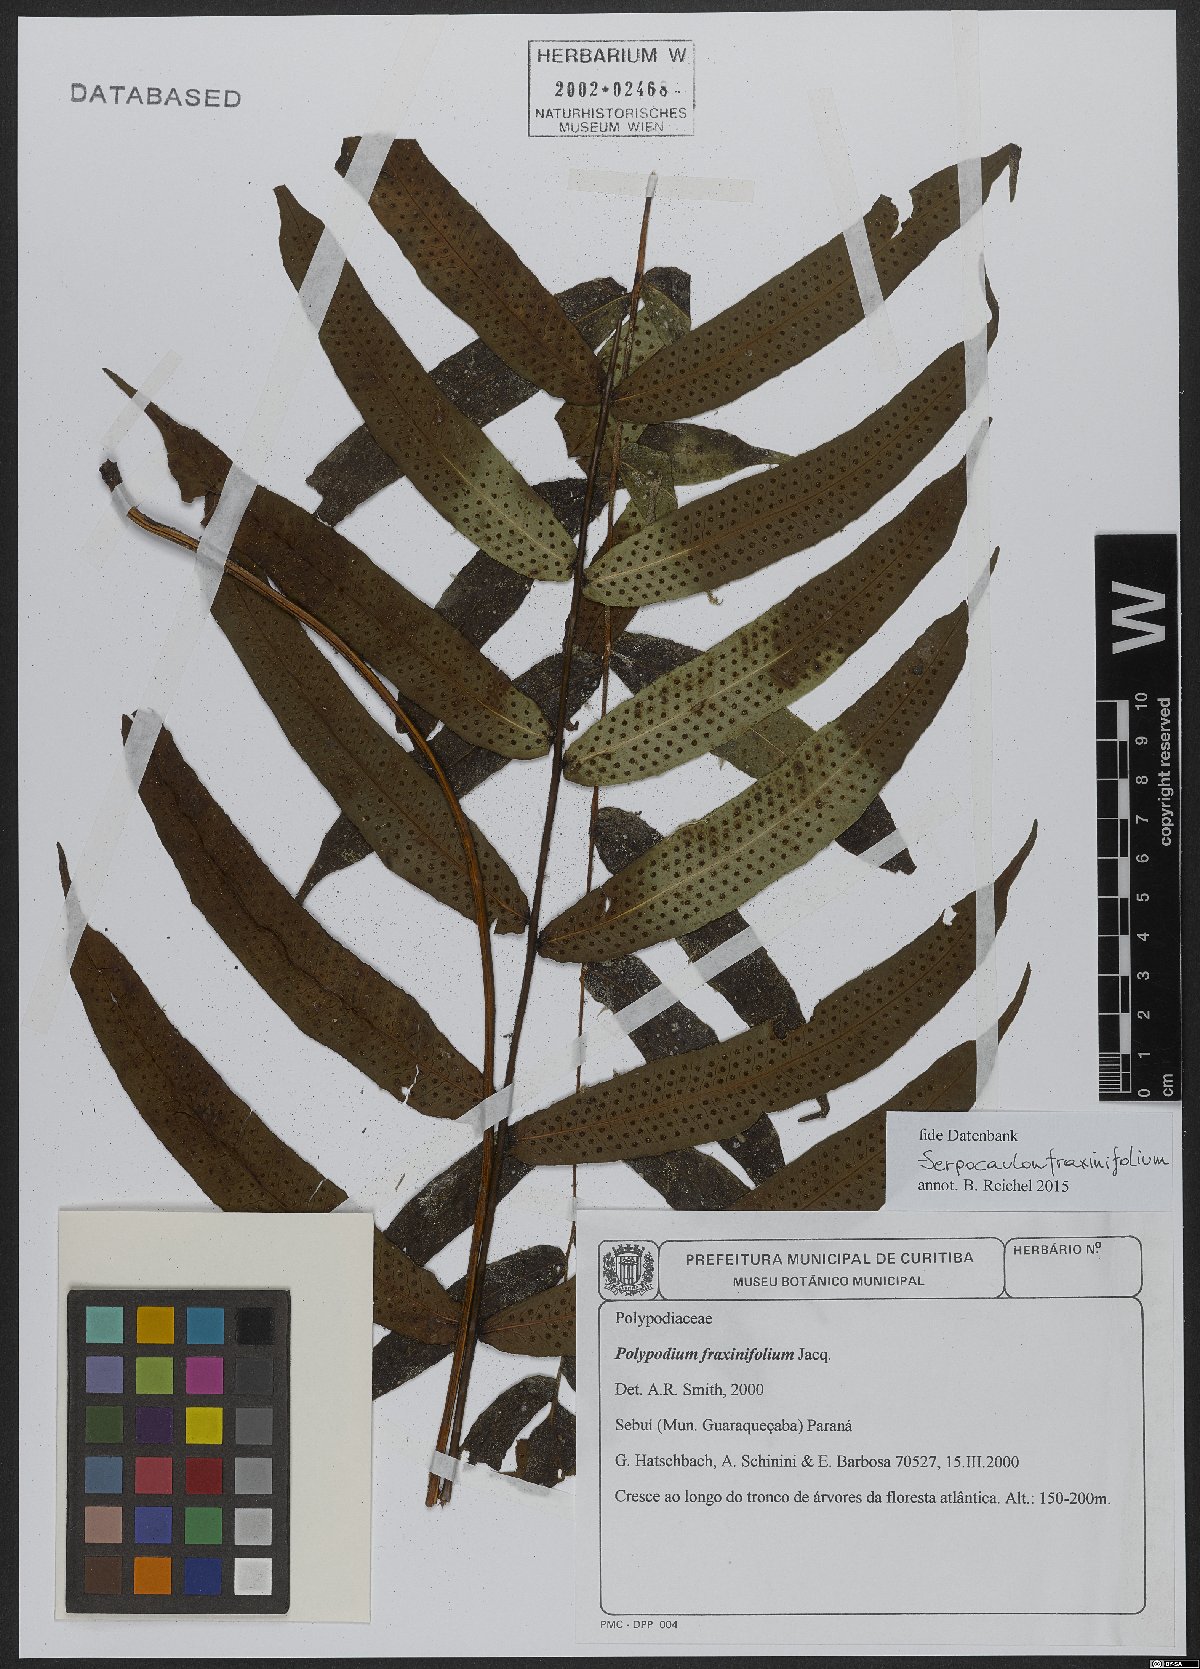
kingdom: Plantae
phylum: Tracheophyta
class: Polypodiopsida
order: Polypodiales
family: Polypodiaceae
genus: Serpocaulon
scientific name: Serpocaulon fraxinifolium
